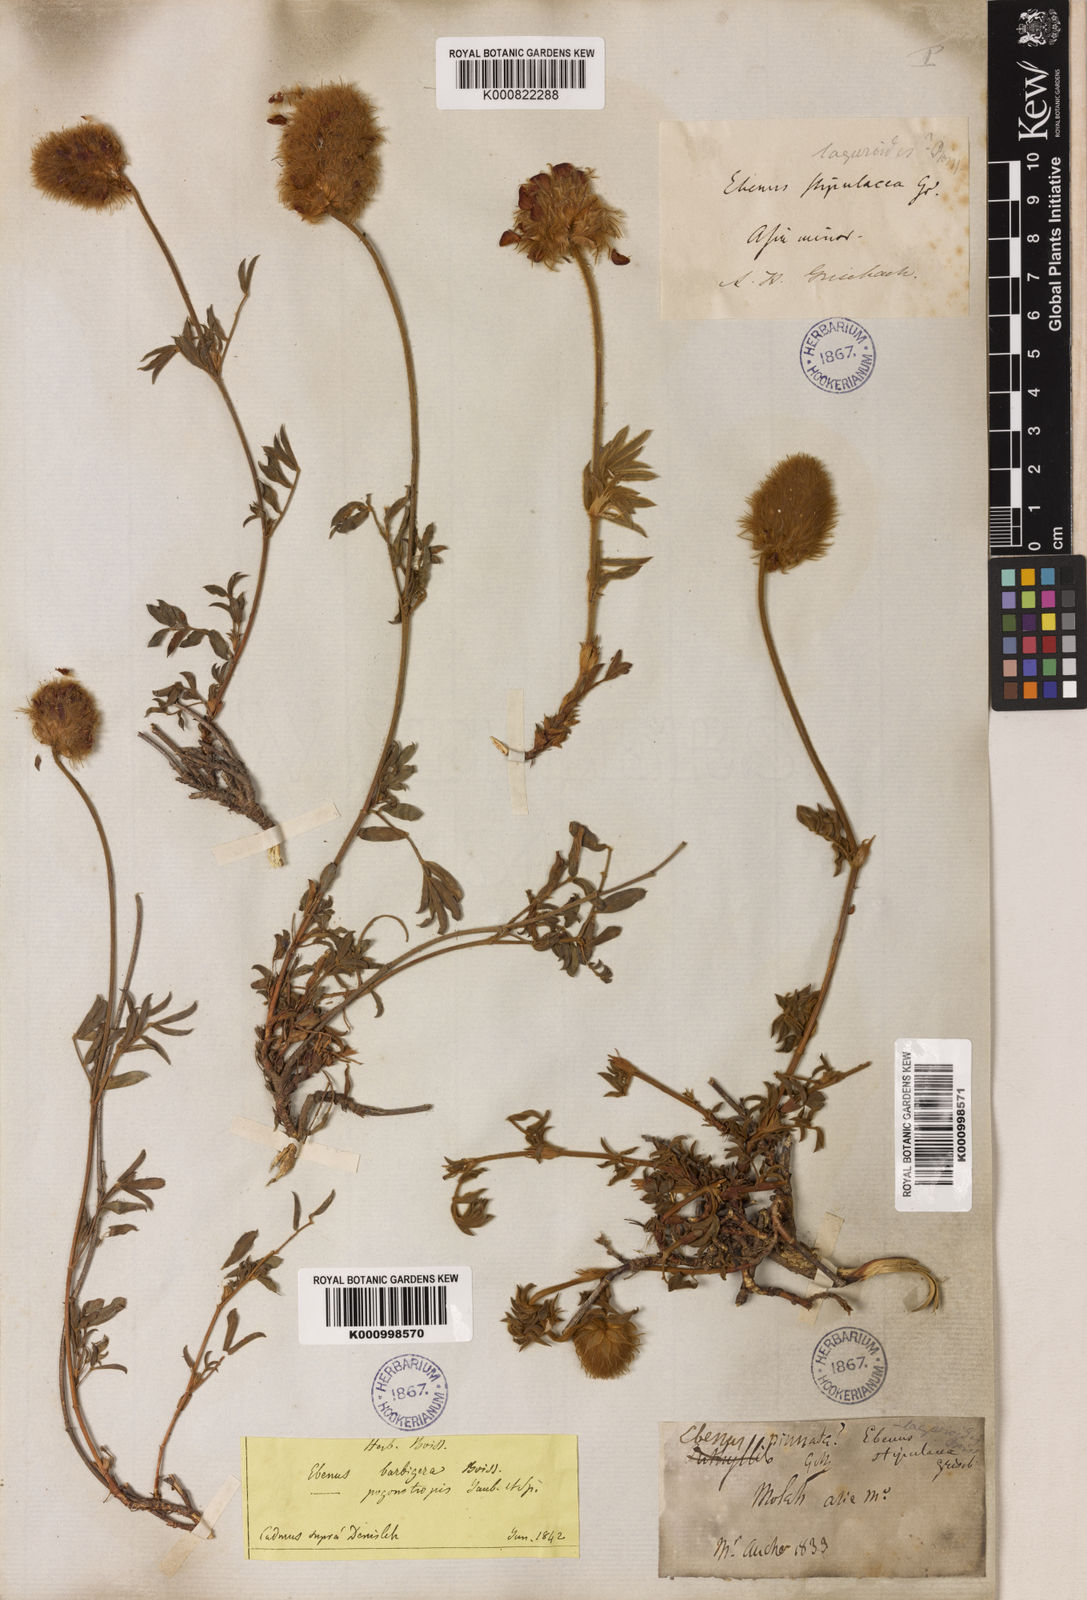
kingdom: Plantae
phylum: Tracheophyta
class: Magnoliopsida
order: Fabales
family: Fabaceae
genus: Ebenus
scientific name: Ebenus barbigera
